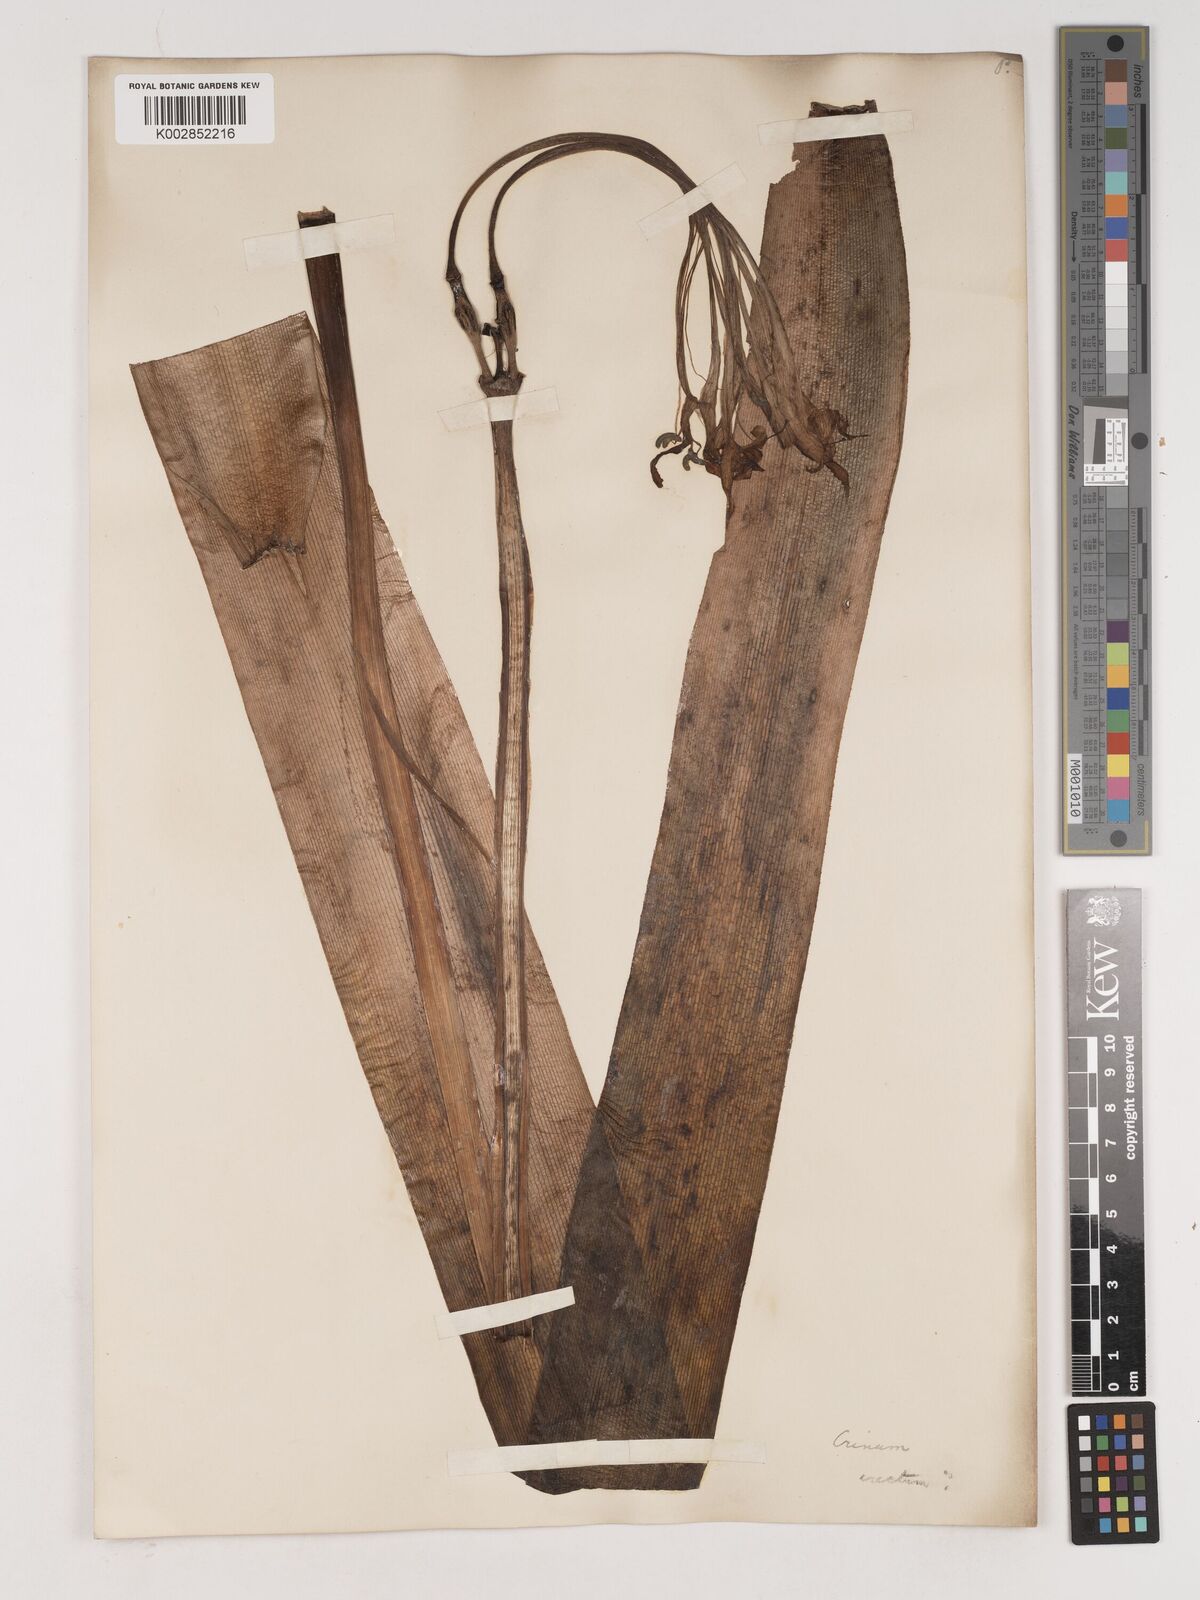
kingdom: Plantae
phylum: Tracheophyta
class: Liliopsida
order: Asparagales
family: Amaryllidaceae
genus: Crinum
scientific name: Crinum
